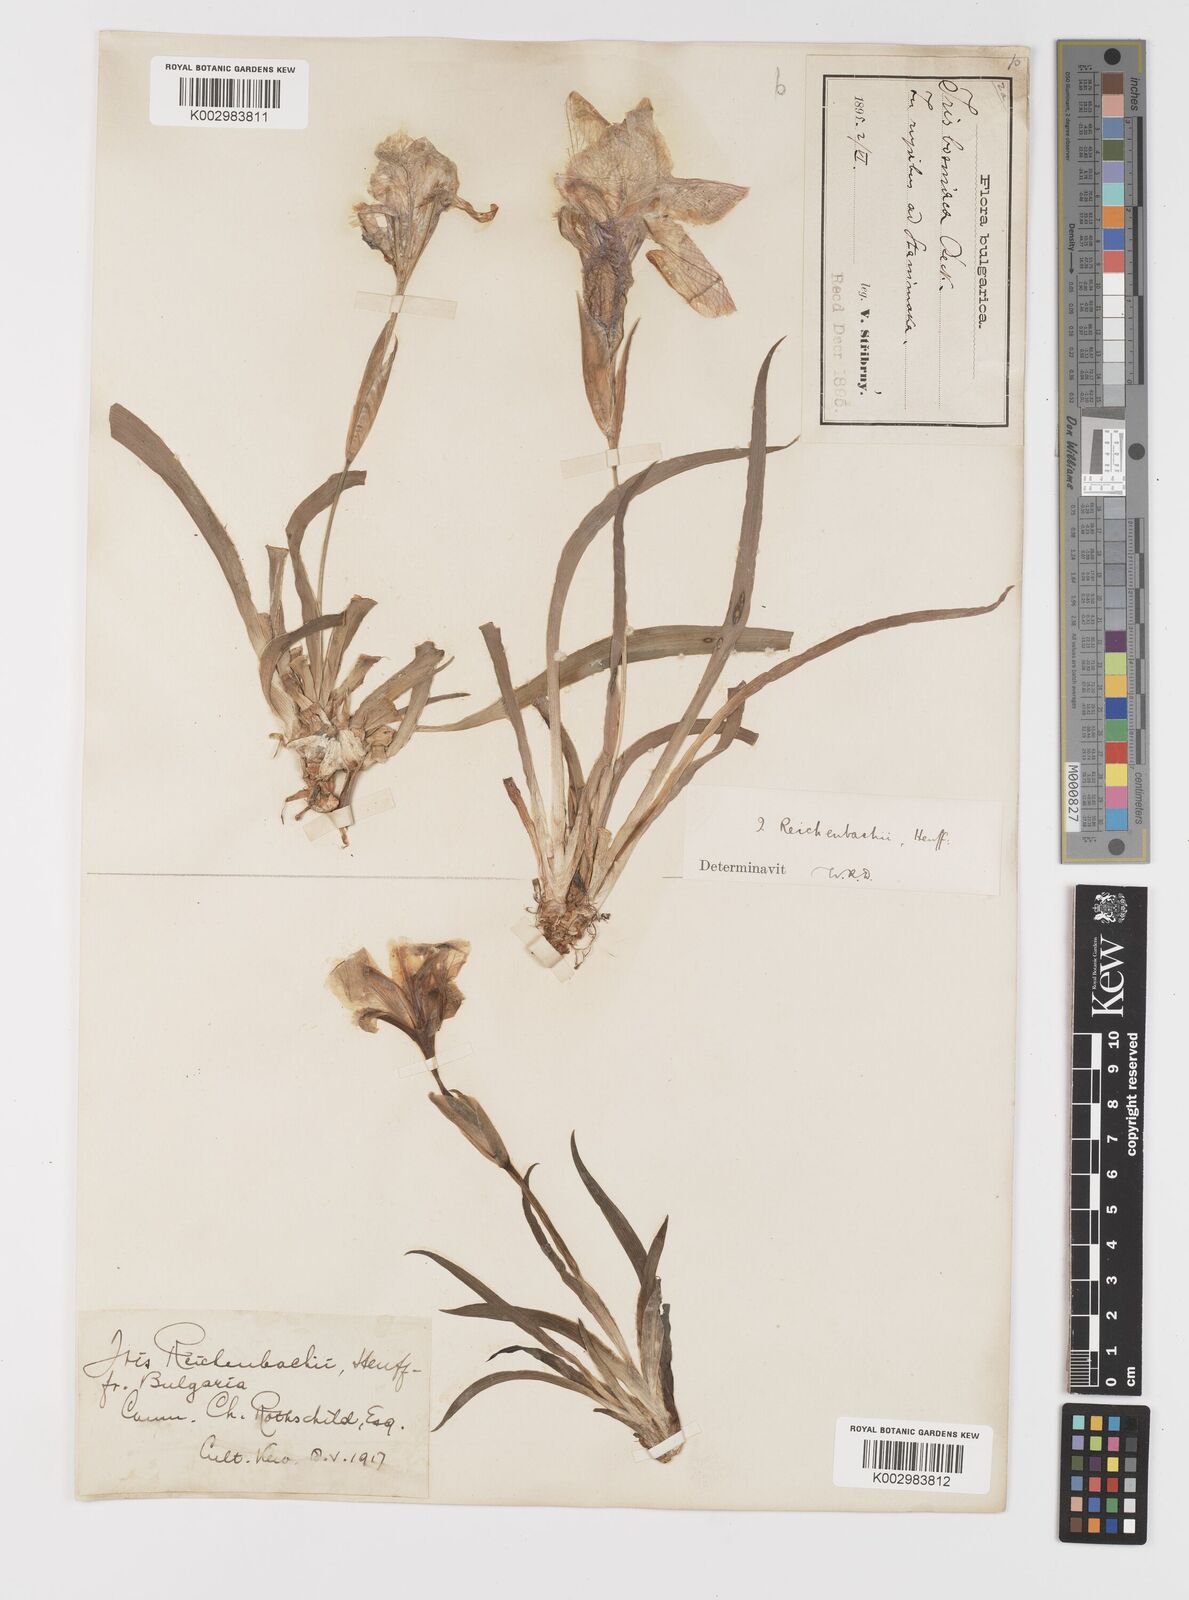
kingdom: Plantae
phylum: Tracheophyta
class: Liliopsida
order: Asparagales
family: Iridaceae
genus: Iris
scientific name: Iris reichenbachii
